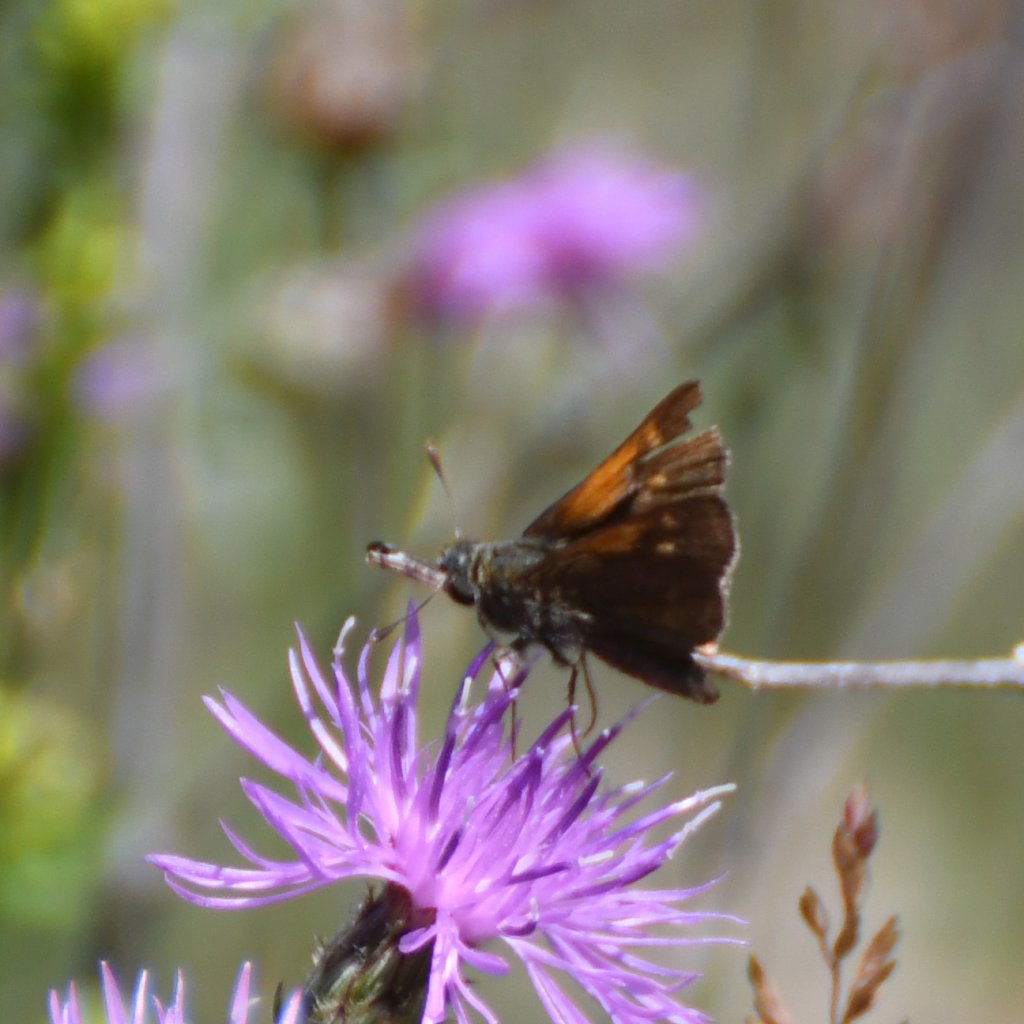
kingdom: Animalia
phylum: Arthropoda
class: Insecta
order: Lepidoptera
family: Hesperiidae
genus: Polites
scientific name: Polites themistocles
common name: Tawny-edged Skipper
